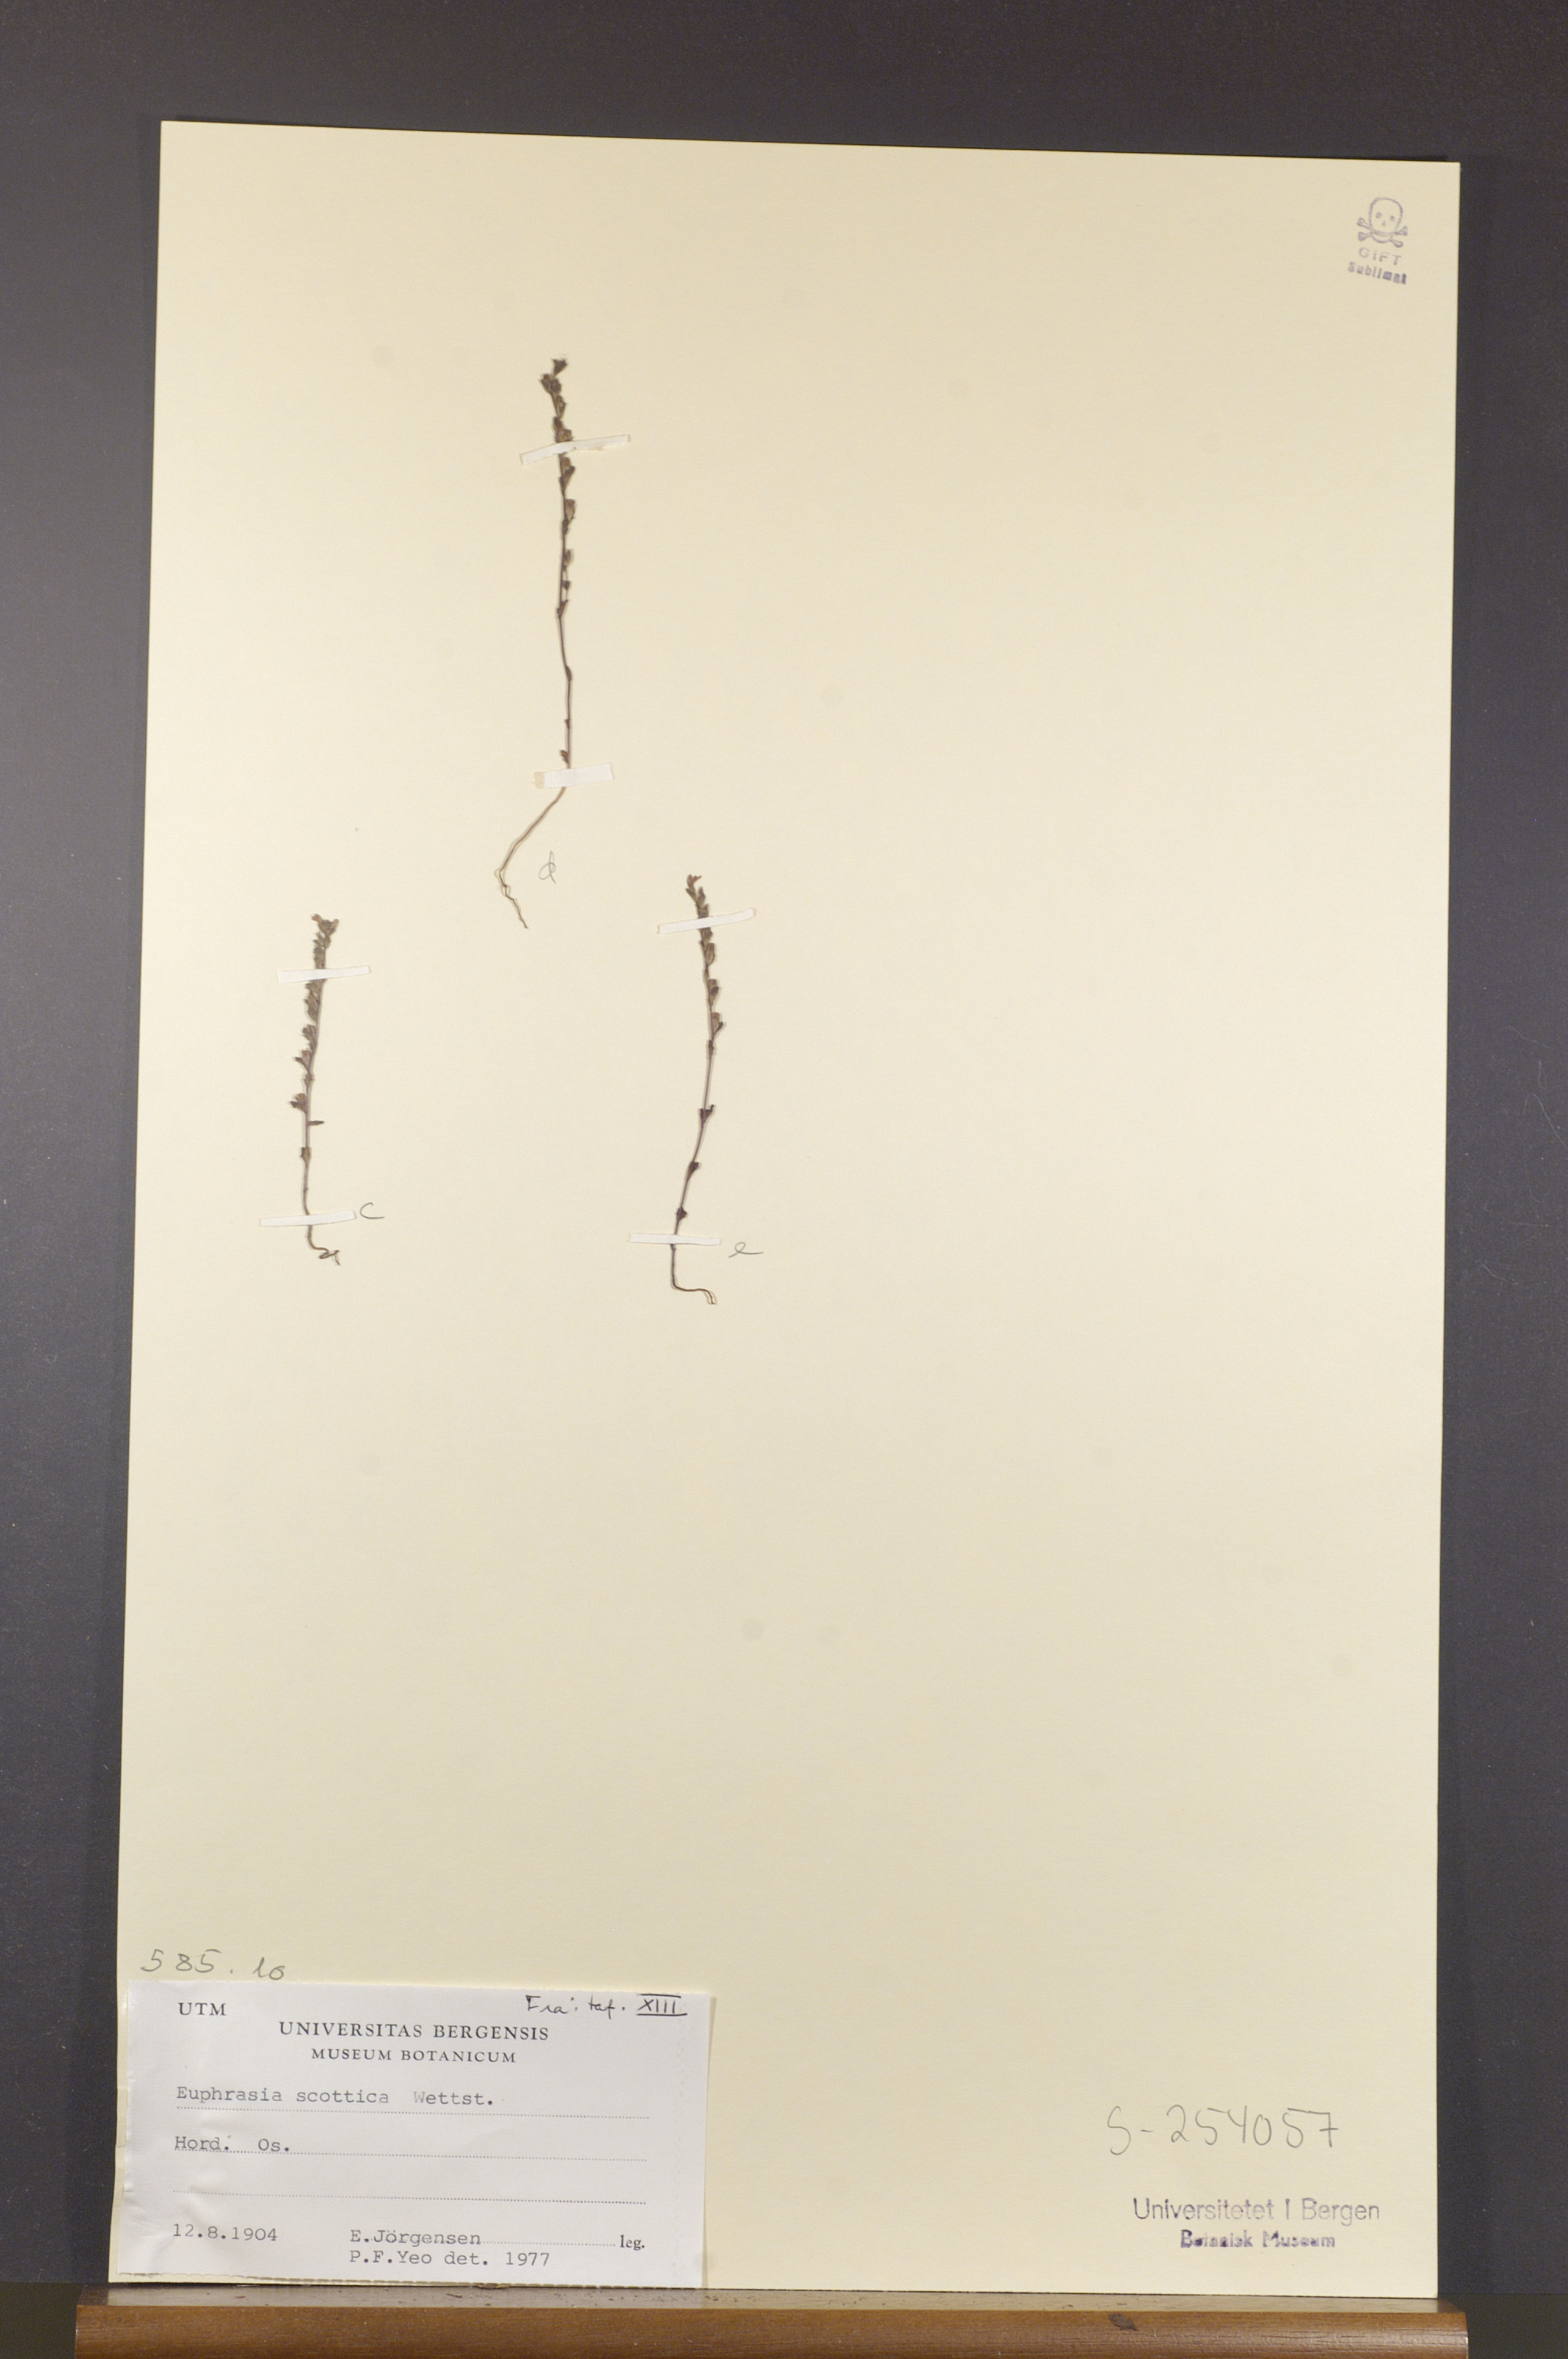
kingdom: Plantae
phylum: Tracheophyta
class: Magnoliopsida
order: Lamiales
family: Orobanchaceae
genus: Euphrasia
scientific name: Euphrasia scottica
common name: Slender scottish eyebright
